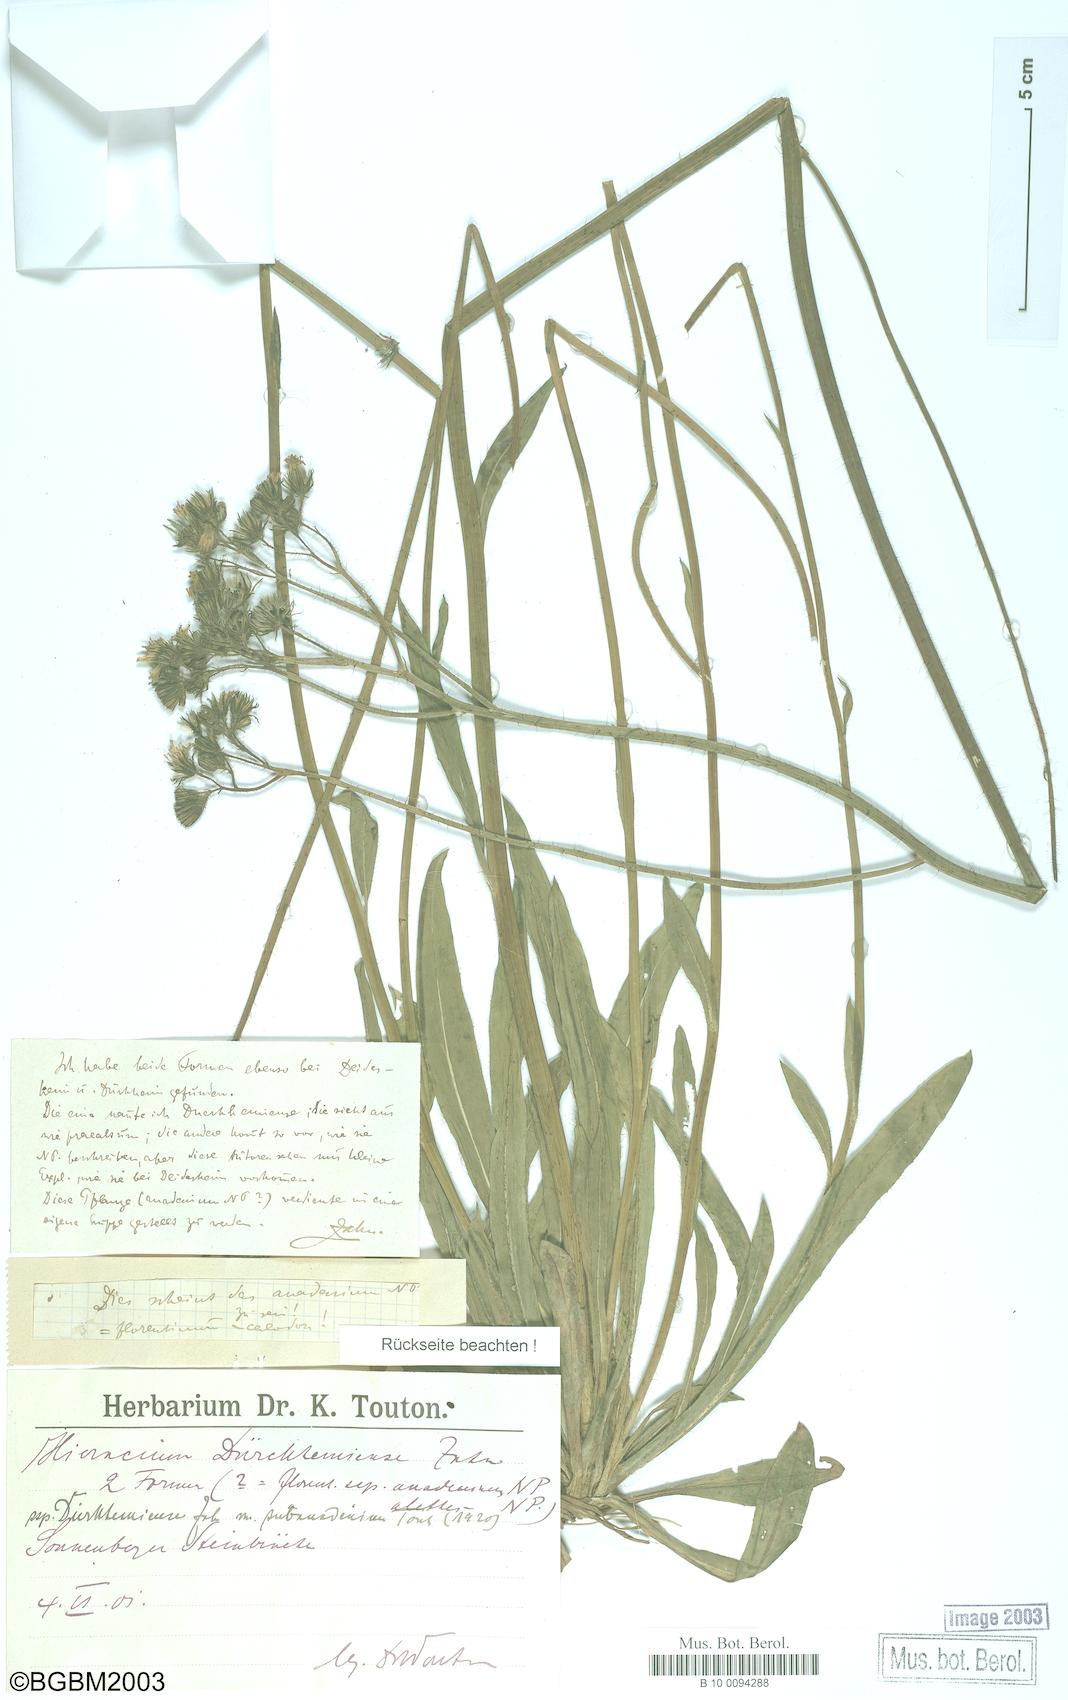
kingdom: Plantae
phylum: Tracheophyta
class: Magnoliopsida
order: Asterales
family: Asteraceae
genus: Pilosella
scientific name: Pilosella duerkhemiensis
